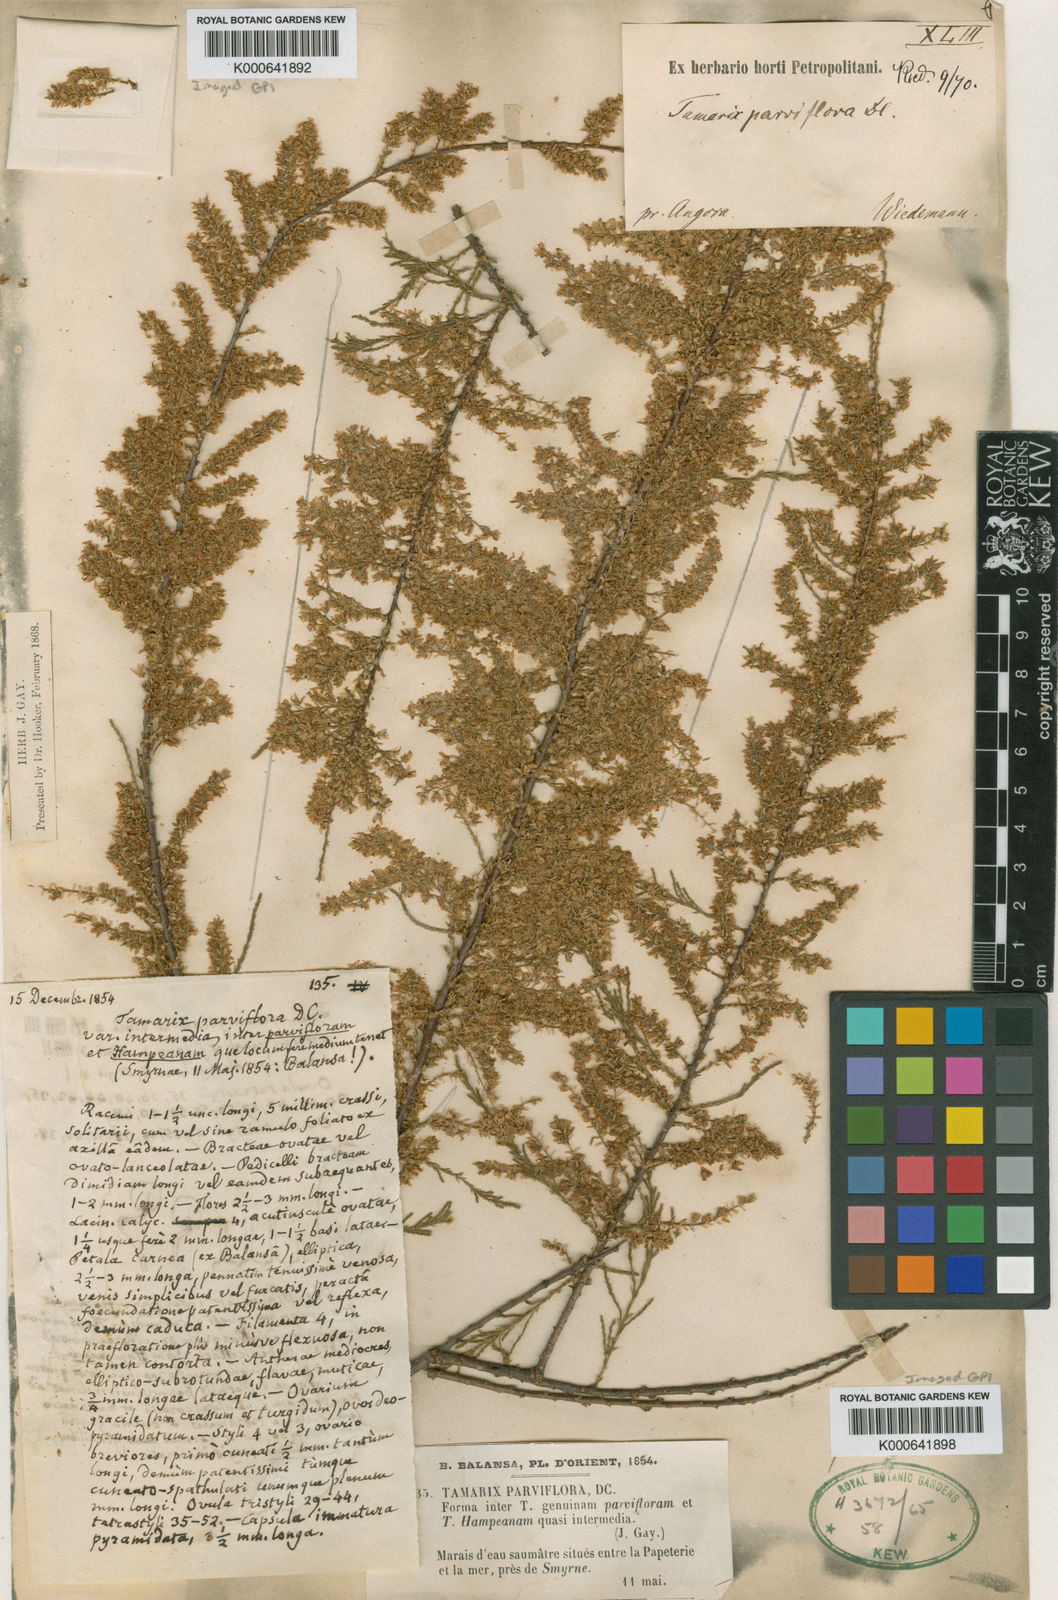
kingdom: Plantae
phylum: Tracheophyta
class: Magnoliopsida
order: Caryophyllales
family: Tamaricaceae
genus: Tamarix
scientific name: Tamarix parviflora
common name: Smallflower tamarisk
